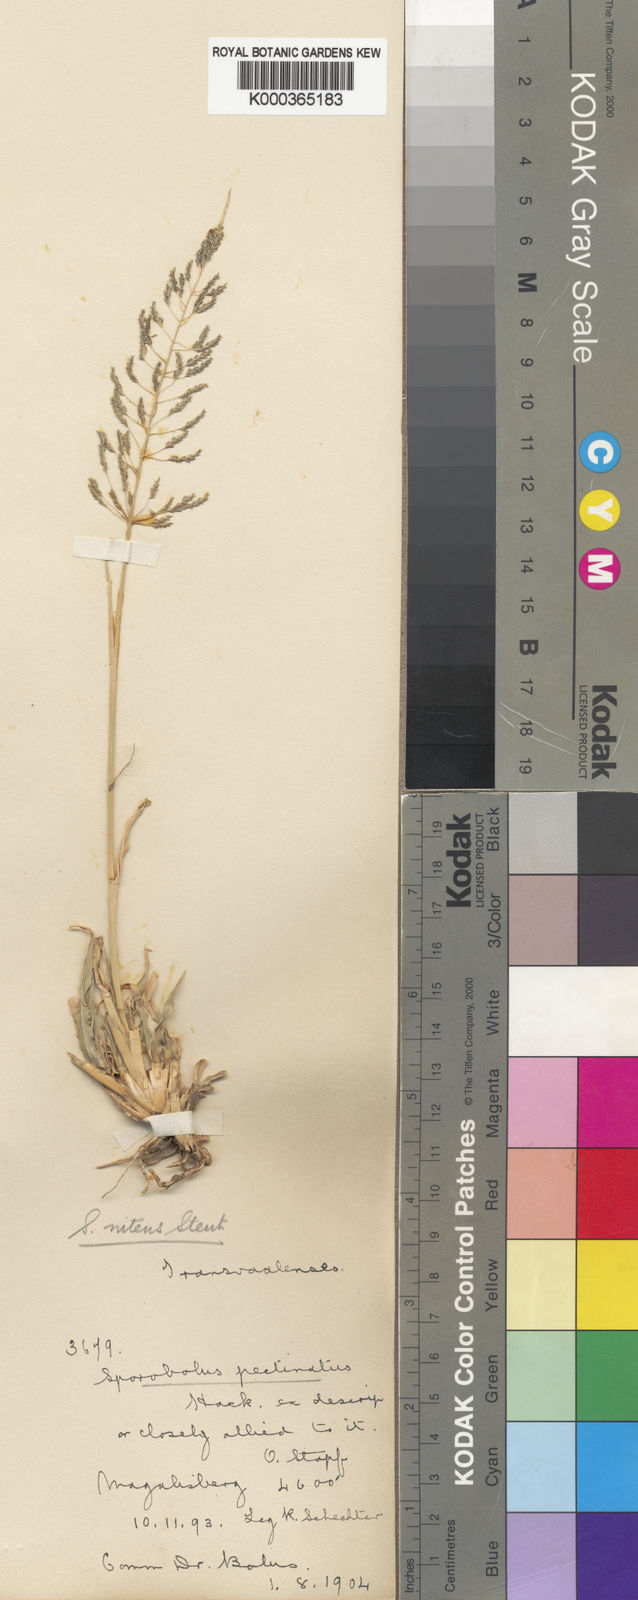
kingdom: Plantae
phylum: Tracheophyta
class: Liliopsida
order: Poales
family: Poaceae
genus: Sporobolus
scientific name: Sporobolus nitens
